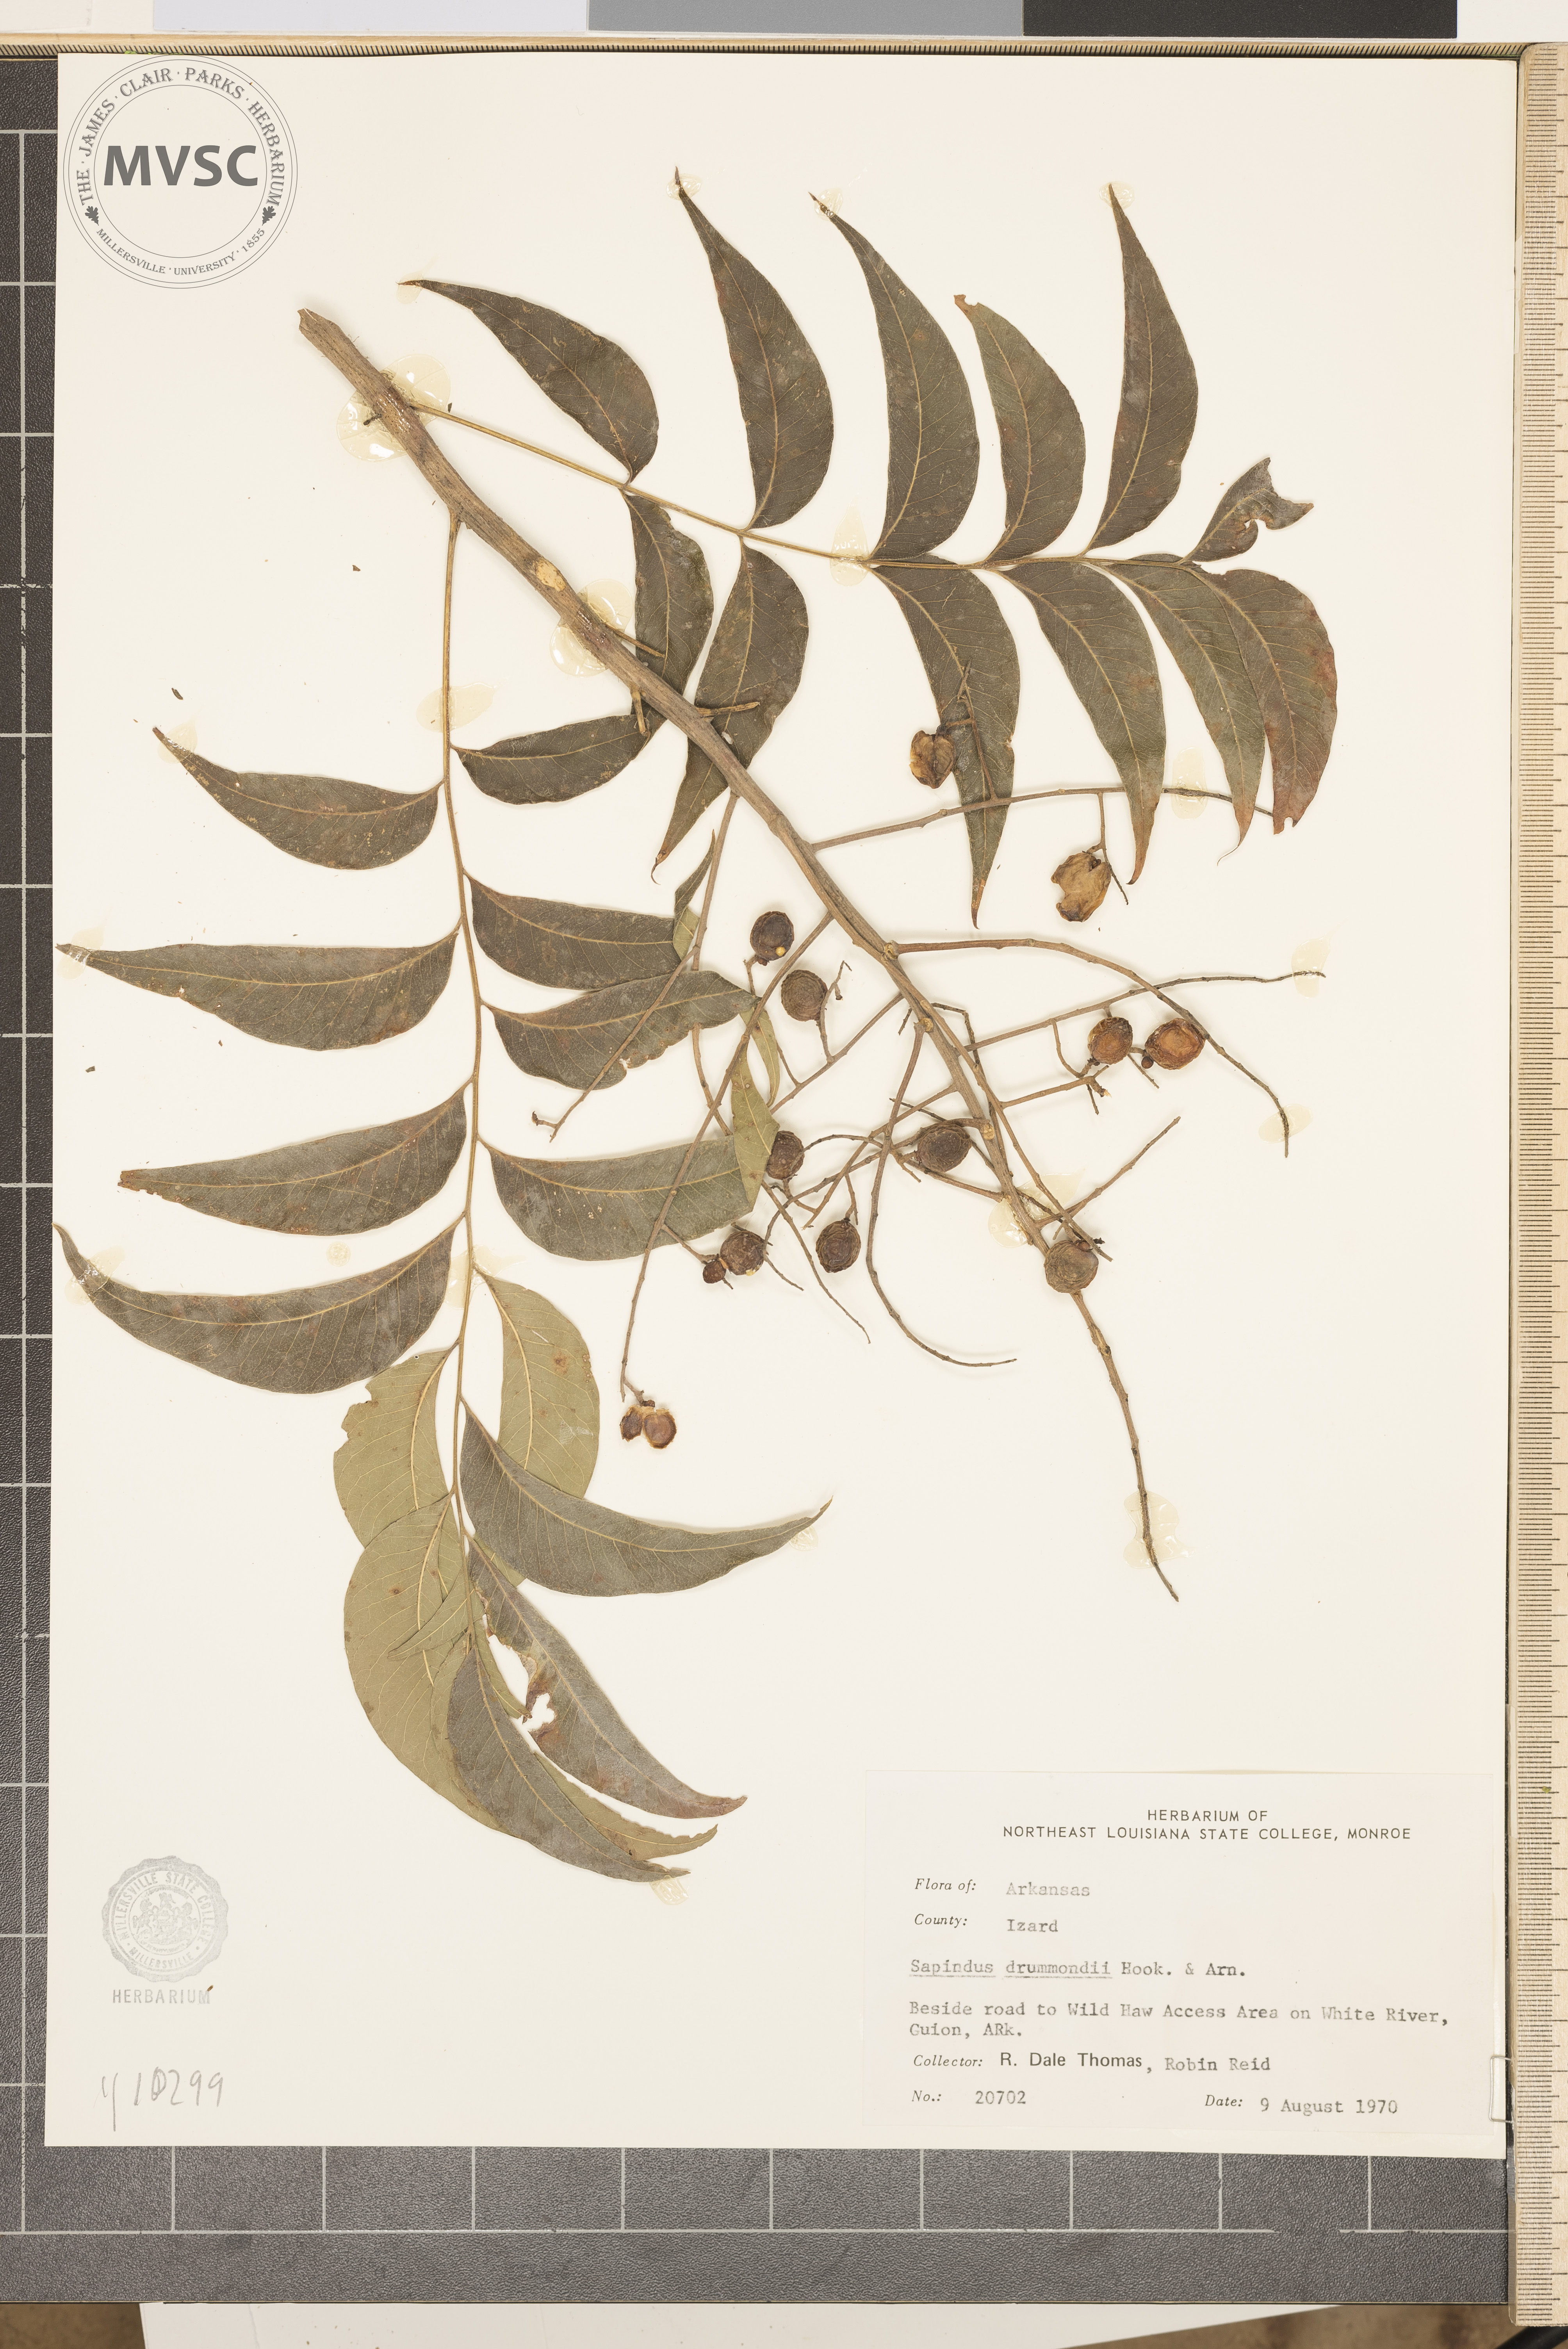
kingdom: Plantae
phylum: Tracheophyta
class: Magnoliopsida
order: Sapindales
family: Sapindaceae
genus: Sapindus
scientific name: Sapindus drummondii
